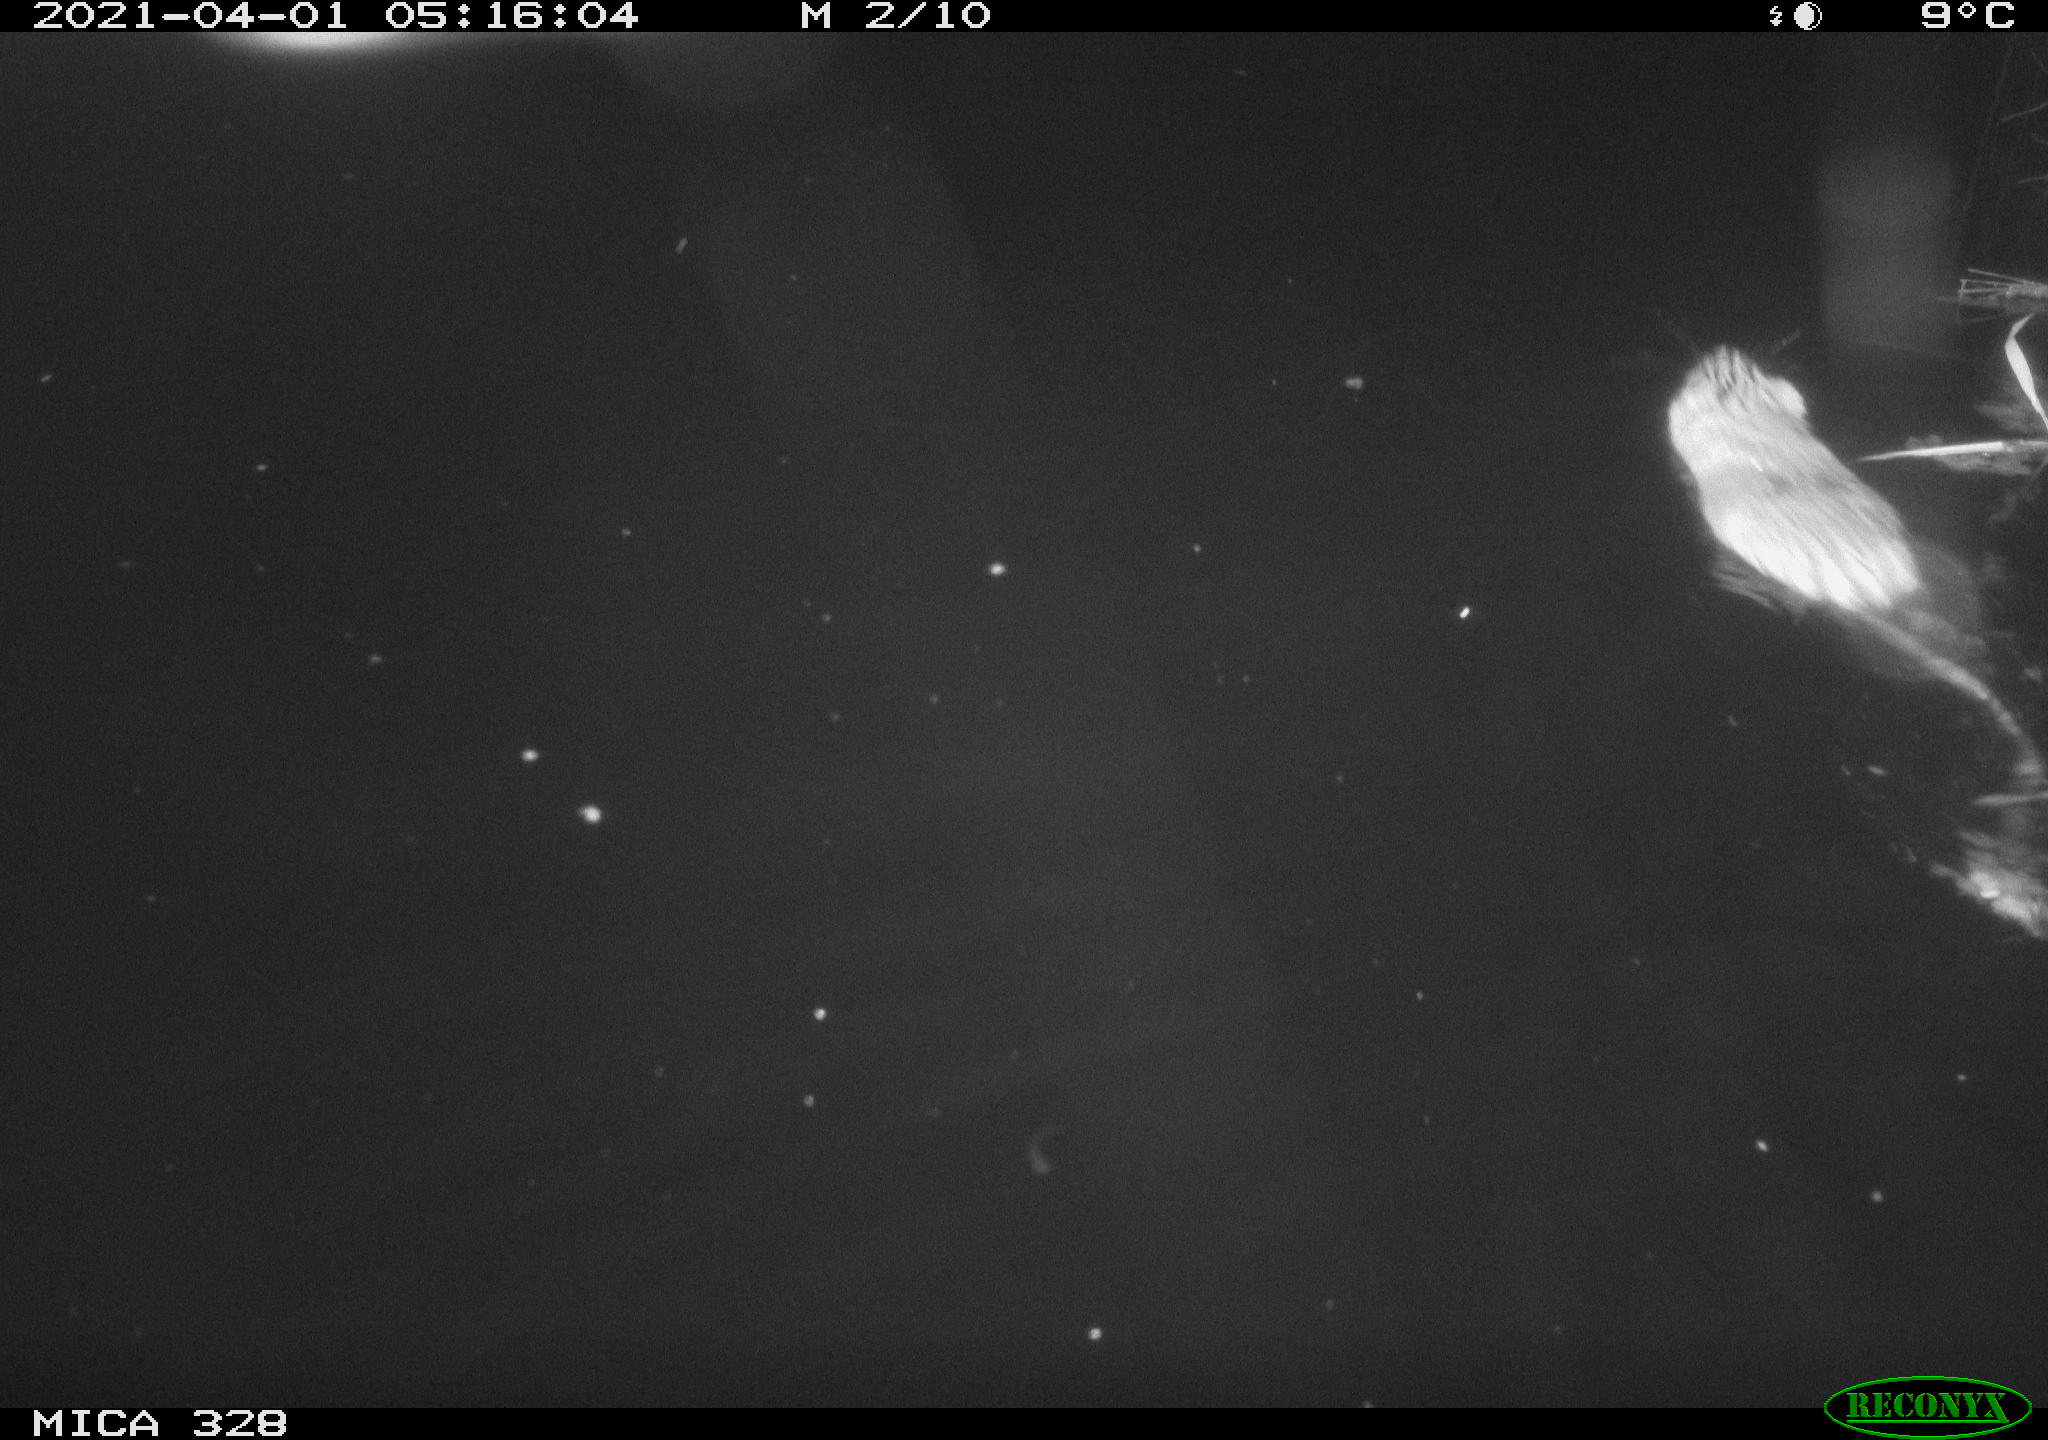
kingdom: Animalia
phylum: Chordata
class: Mammalia
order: Rodentia
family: Cricetidae
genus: Ondatra
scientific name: Ondatra zibethicus
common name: Muskrat
